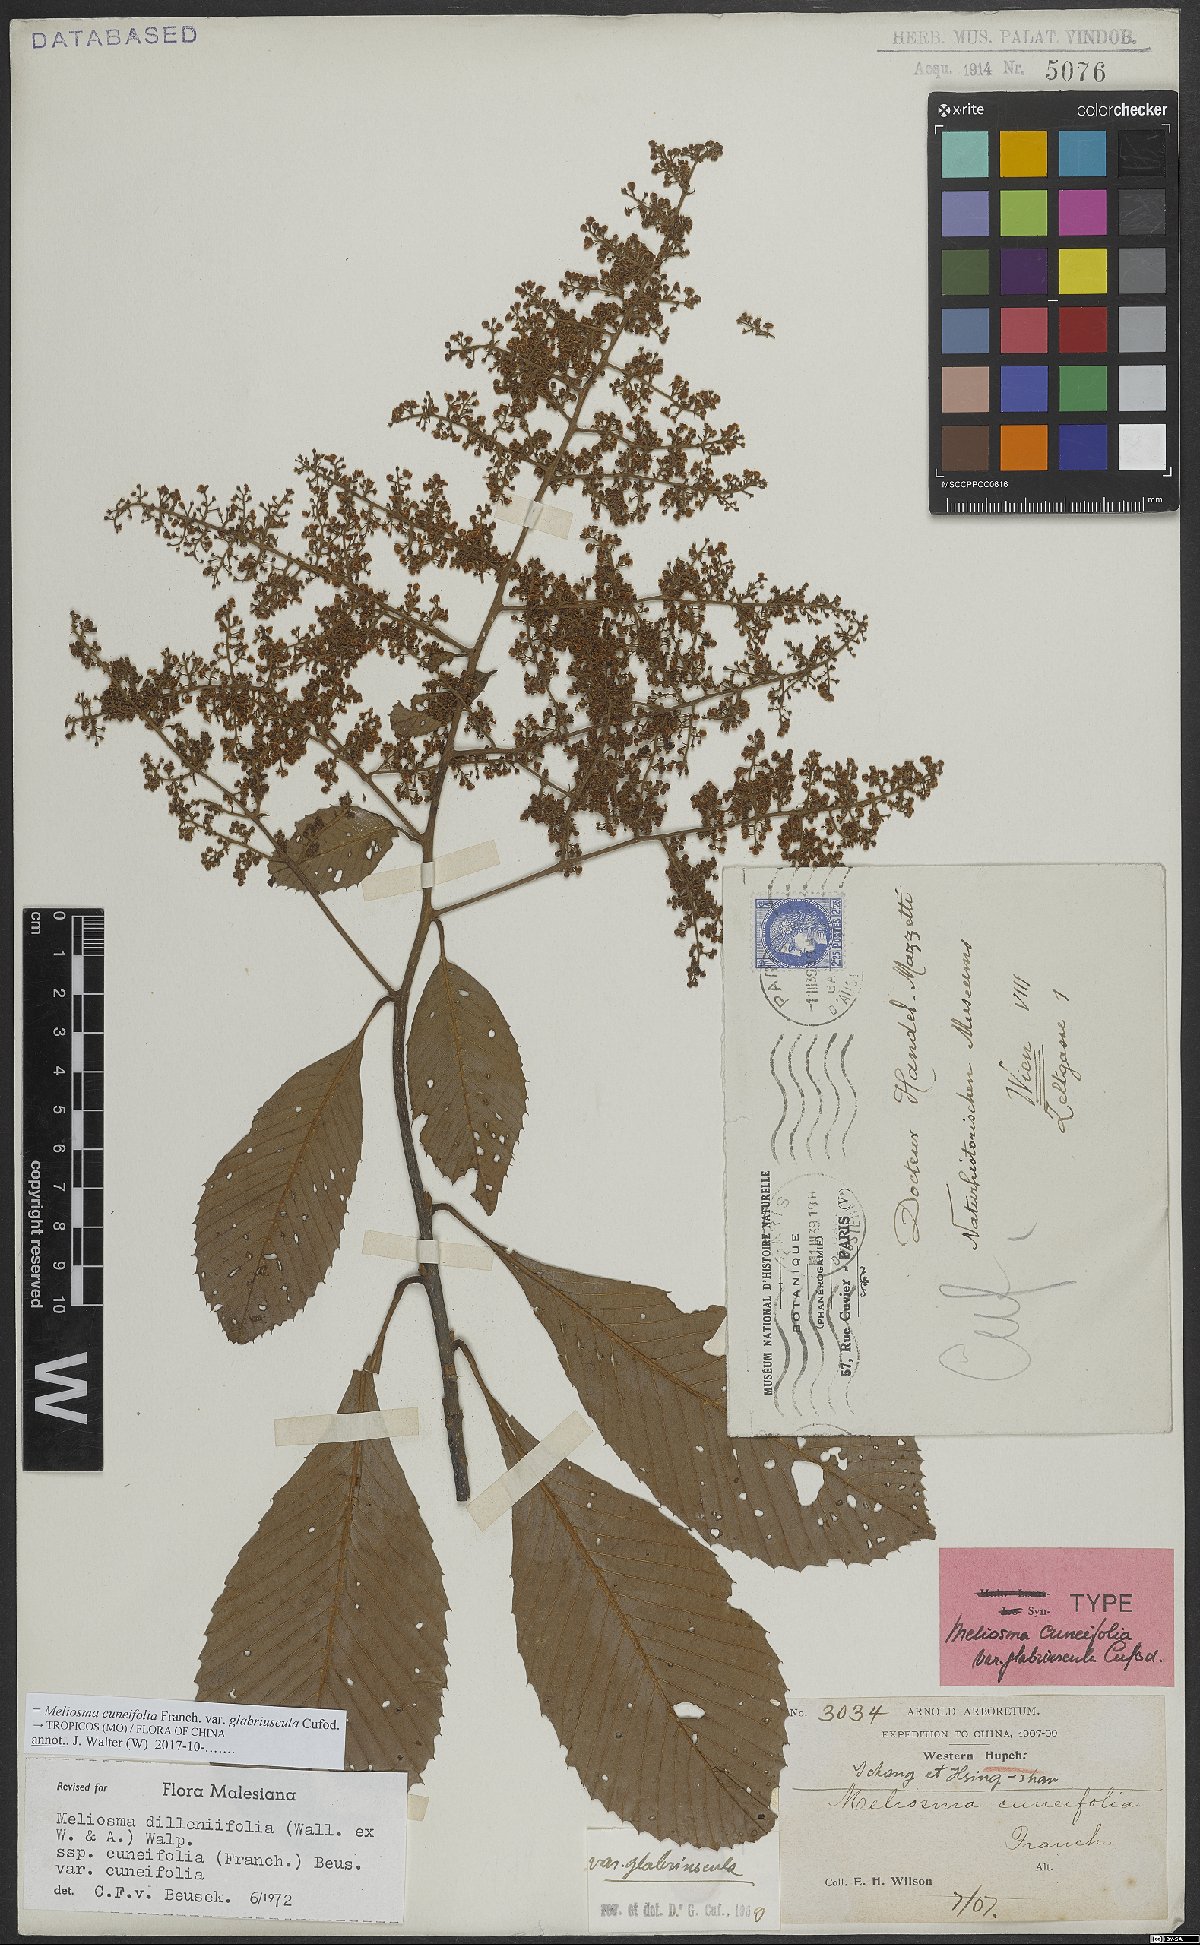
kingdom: Plantae
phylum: Tracheophyta
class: Magnoliopsida
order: Proteales
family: Sabiaceae
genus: Meliosma
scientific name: Meliosma cuneifolia
